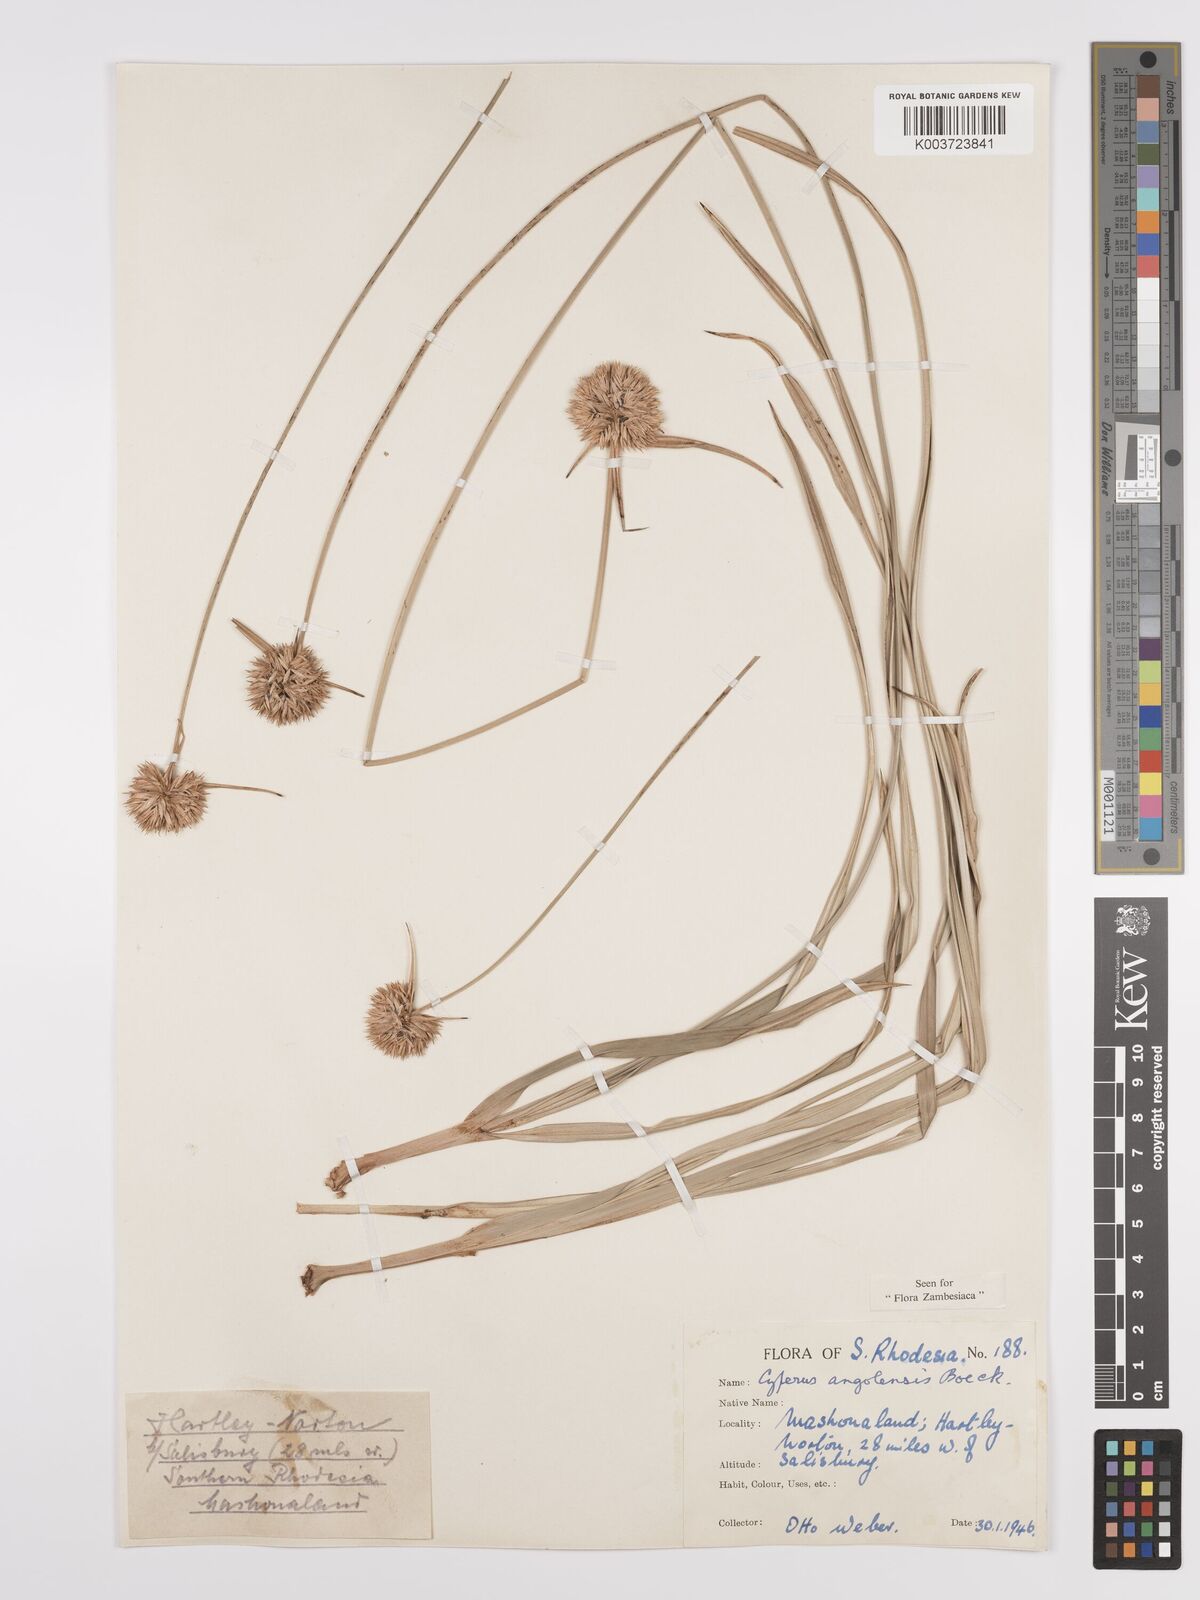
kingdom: Plantae
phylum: Tracheophyta
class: Liliopsida
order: Poales
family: Cyperaceae
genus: Cyperus
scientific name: Cyperus angolensis
